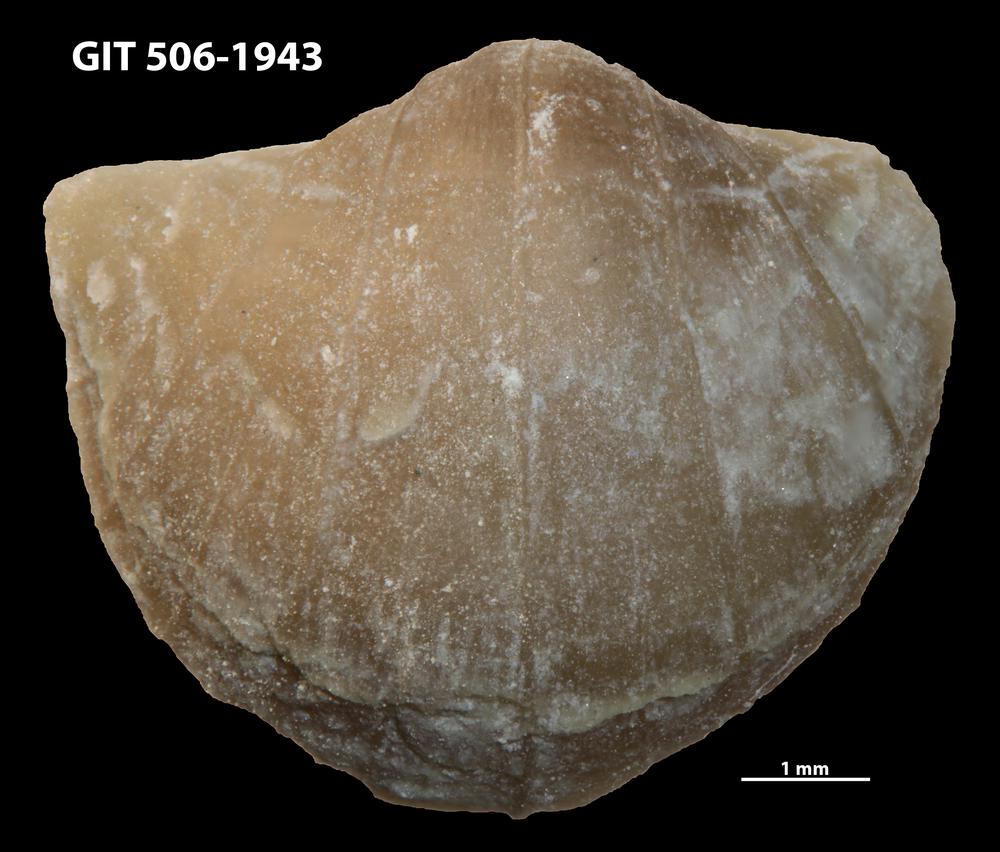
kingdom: Animalia
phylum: Brachiopoda
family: Oldhaminidae
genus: Eoplectodonta
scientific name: Eoplectodonta penkillensis
